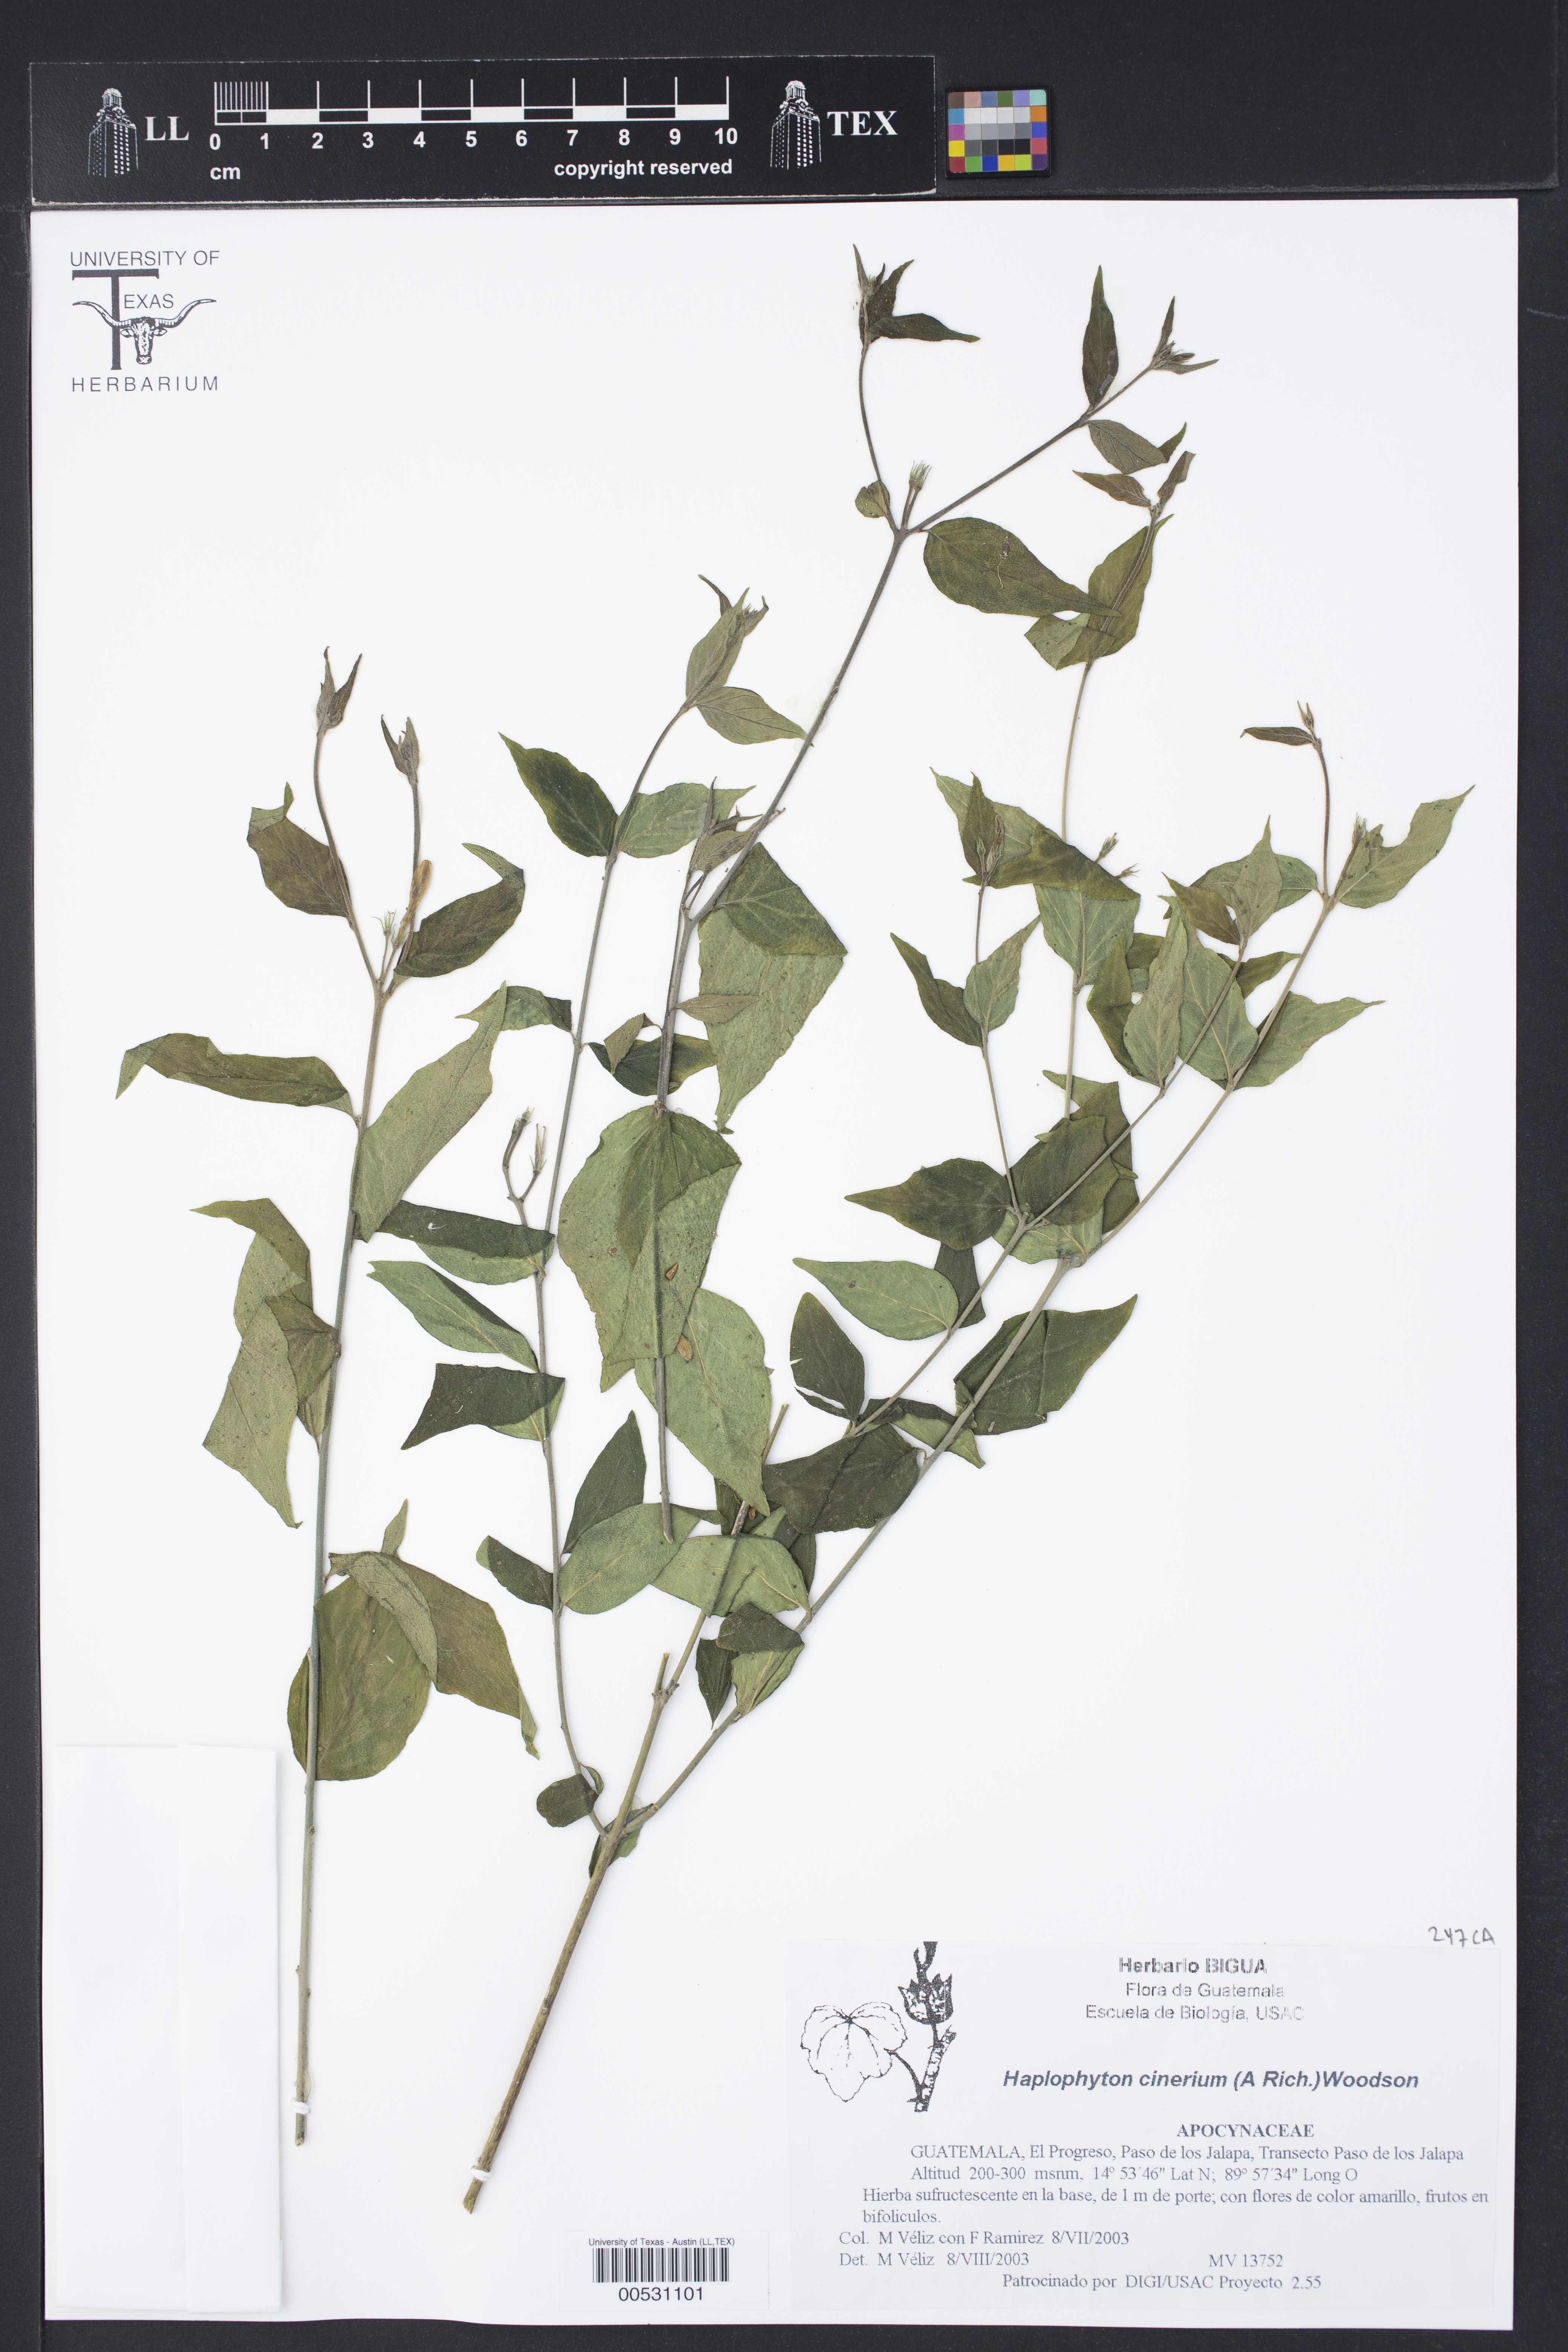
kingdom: Plantae
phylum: Tracheophyta
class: Magnoliopsida
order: Gentianales
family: Apocynaceae
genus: Haplophyton
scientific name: Haplophyton cimicidum
